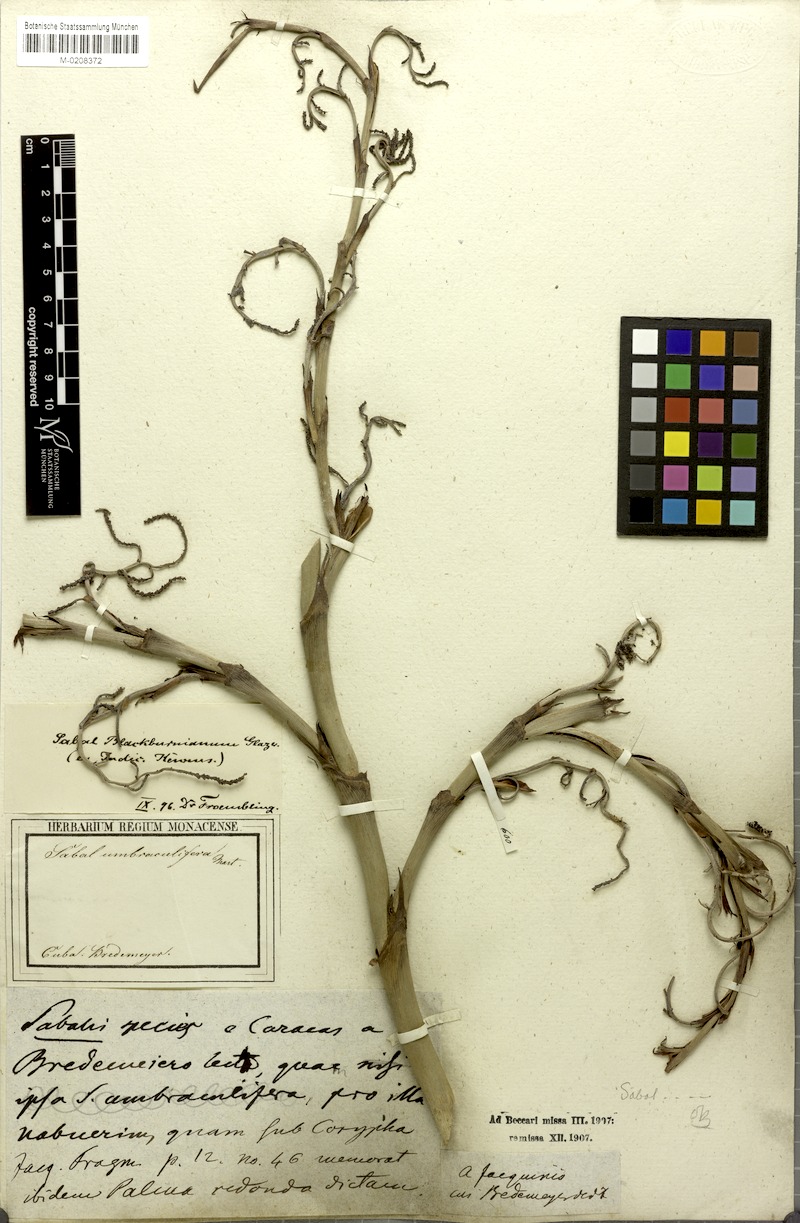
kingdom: Plantae
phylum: Tracheophyta
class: Liliopsida
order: Arecales
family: Arecaceae
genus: Sabal
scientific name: Sabal palmetto
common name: Blue palmetto
